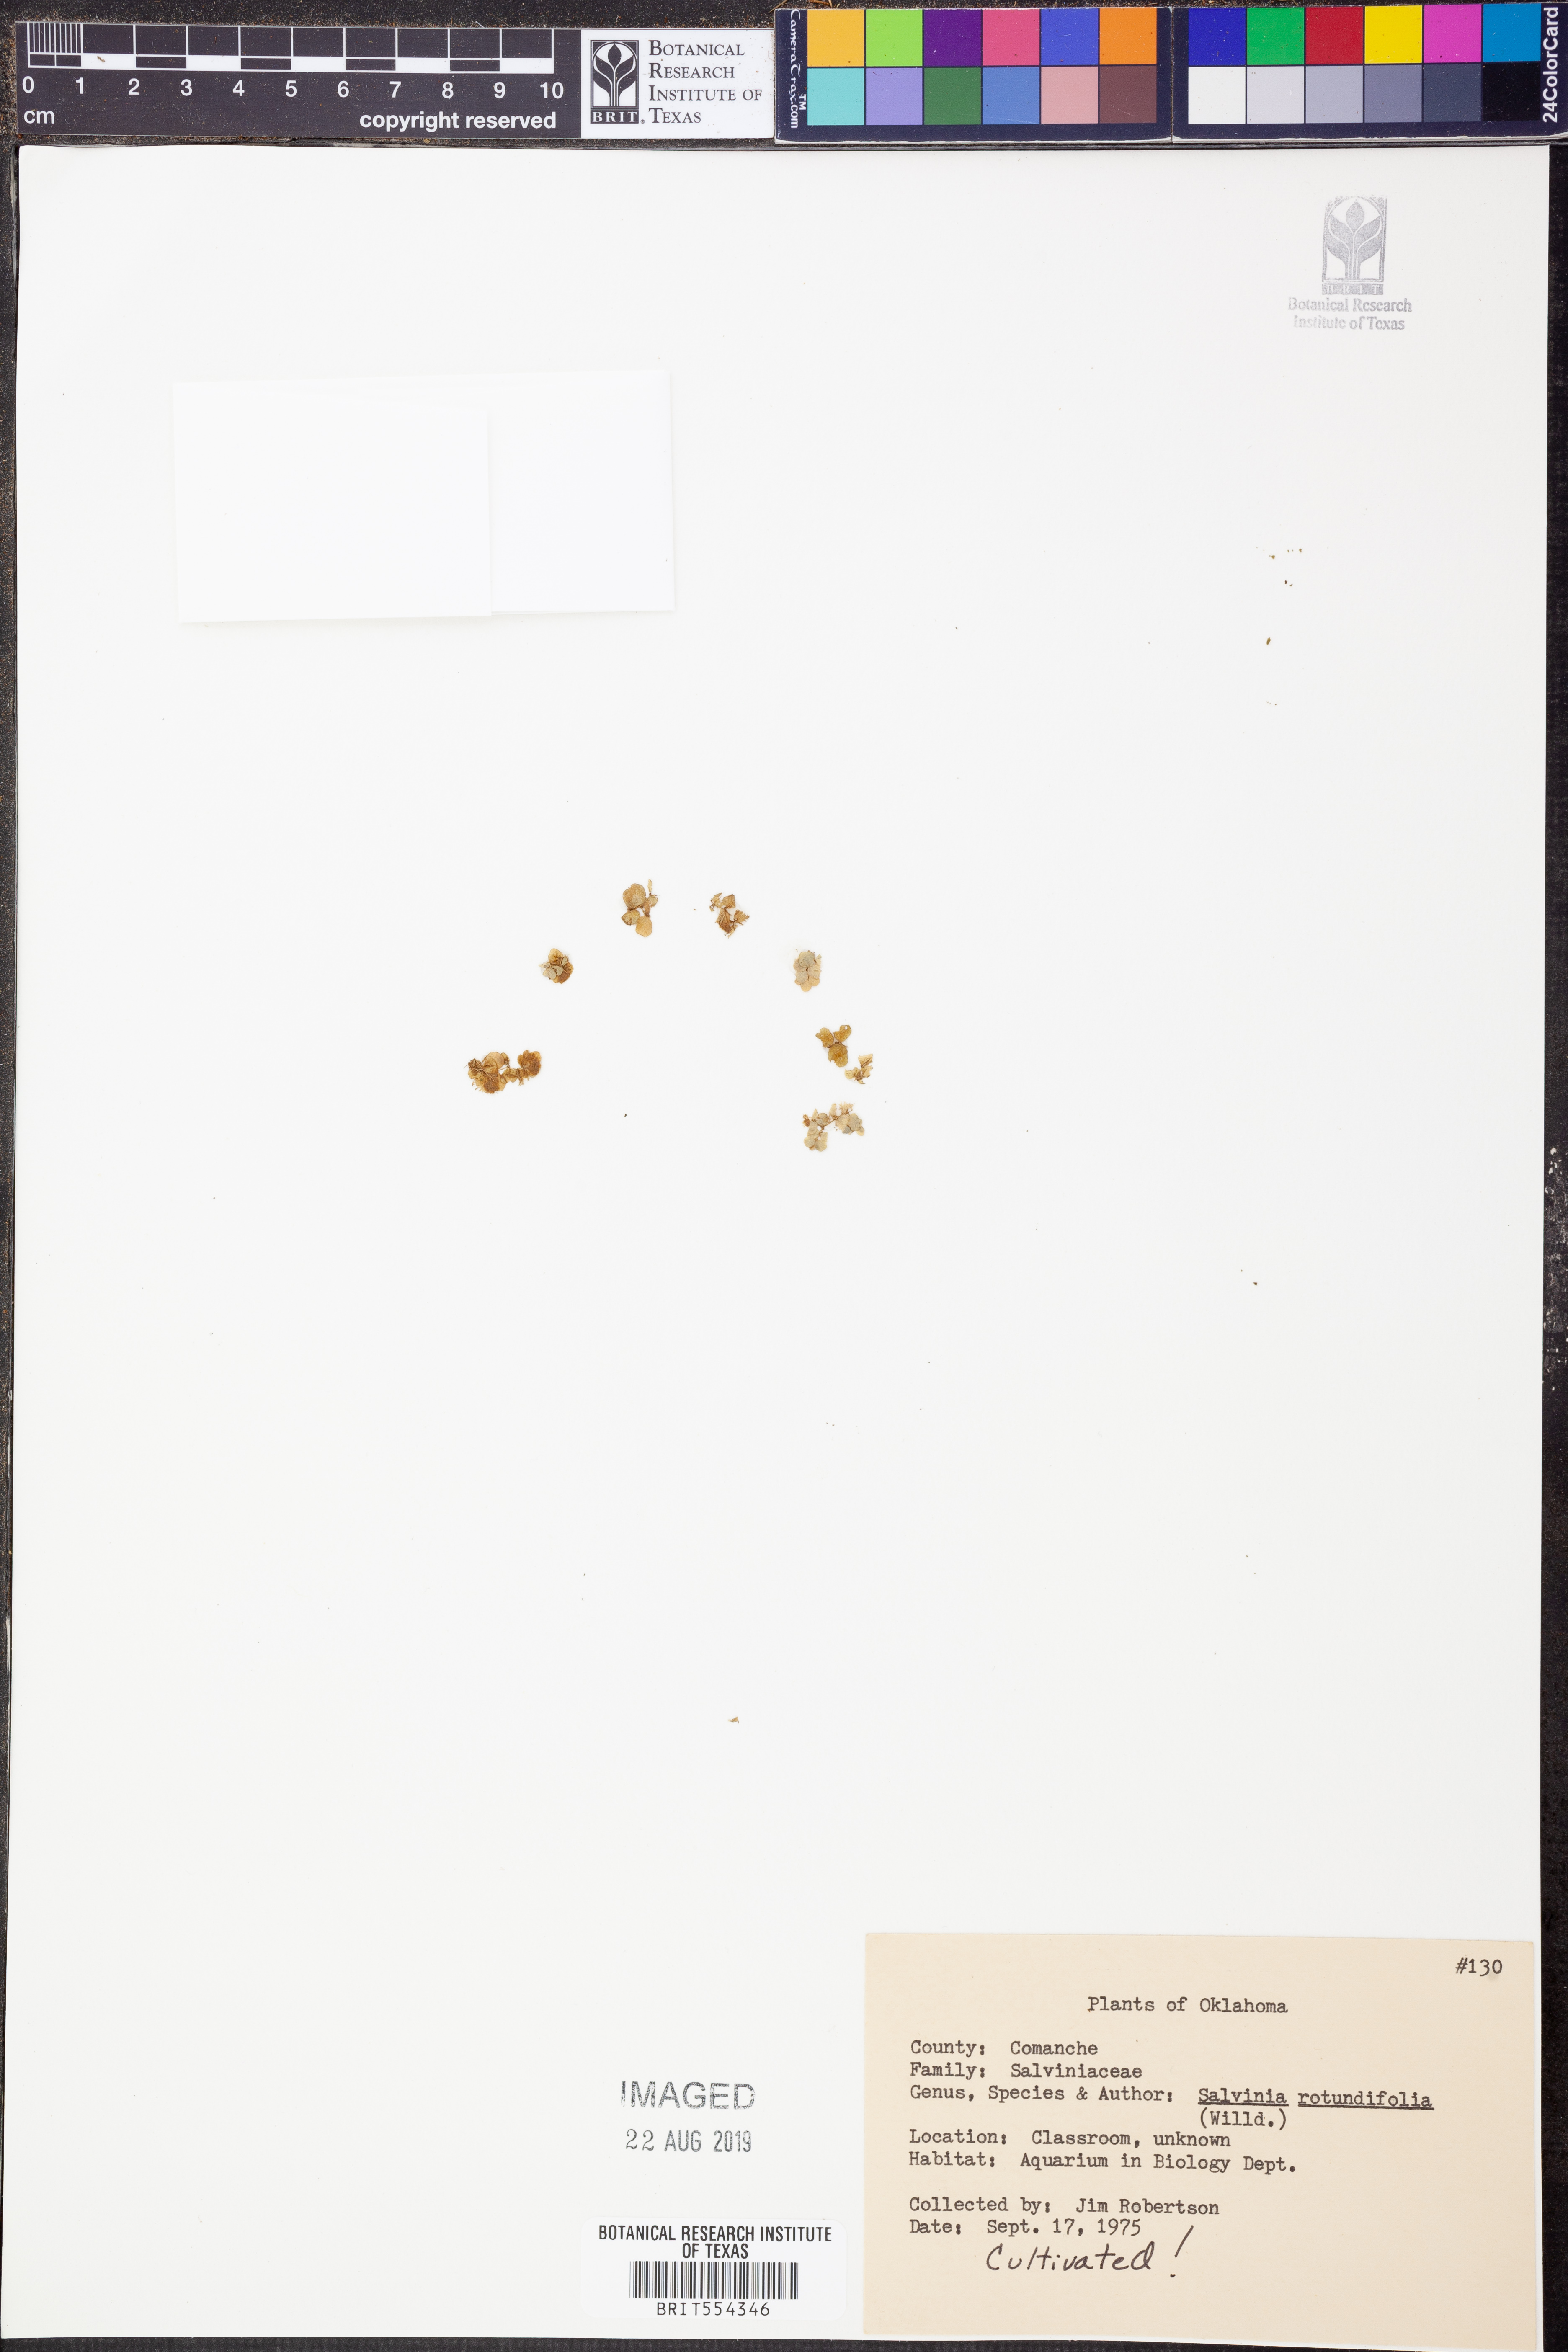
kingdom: Plantae
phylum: Tracheophyta
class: Polypodiopsida
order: Salviniales
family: Salviniaceae
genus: Salvinia
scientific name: Salvinia auriculata
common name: African payal
